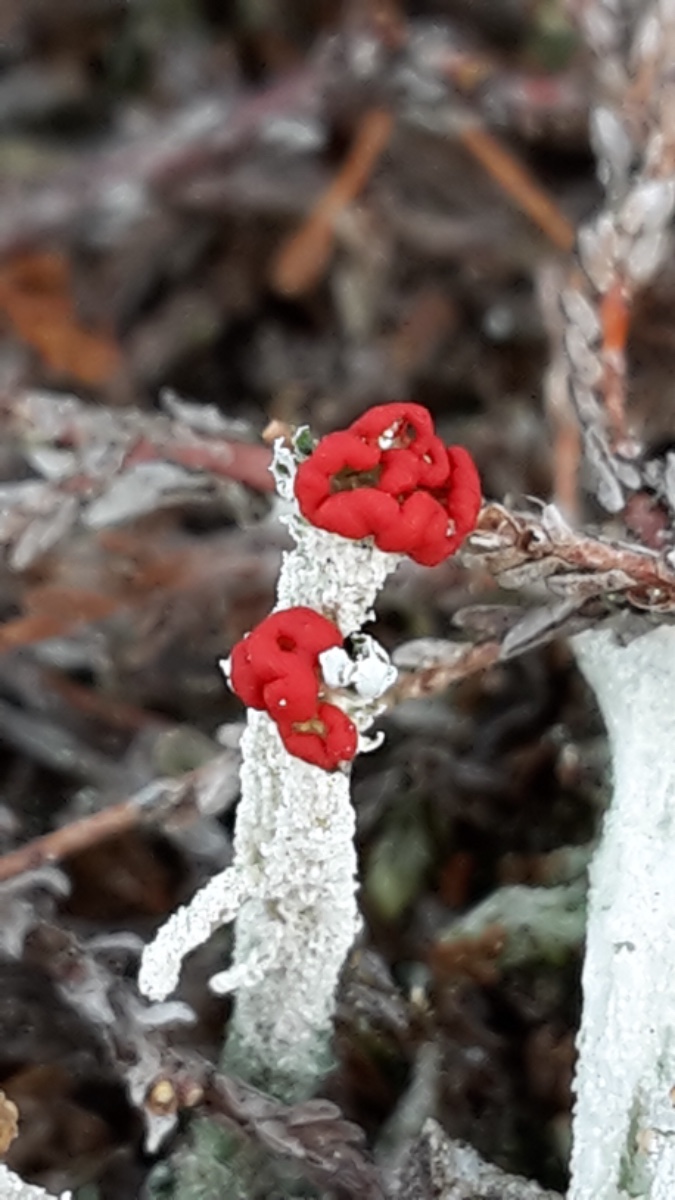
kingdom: Fungi
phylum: Ascomycota
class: Lecanoromycetes
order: Lecanorales
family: Cladoniaceae
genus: Cladonia
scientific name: Cladonia floerkeana
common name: lakrød bægerlav
